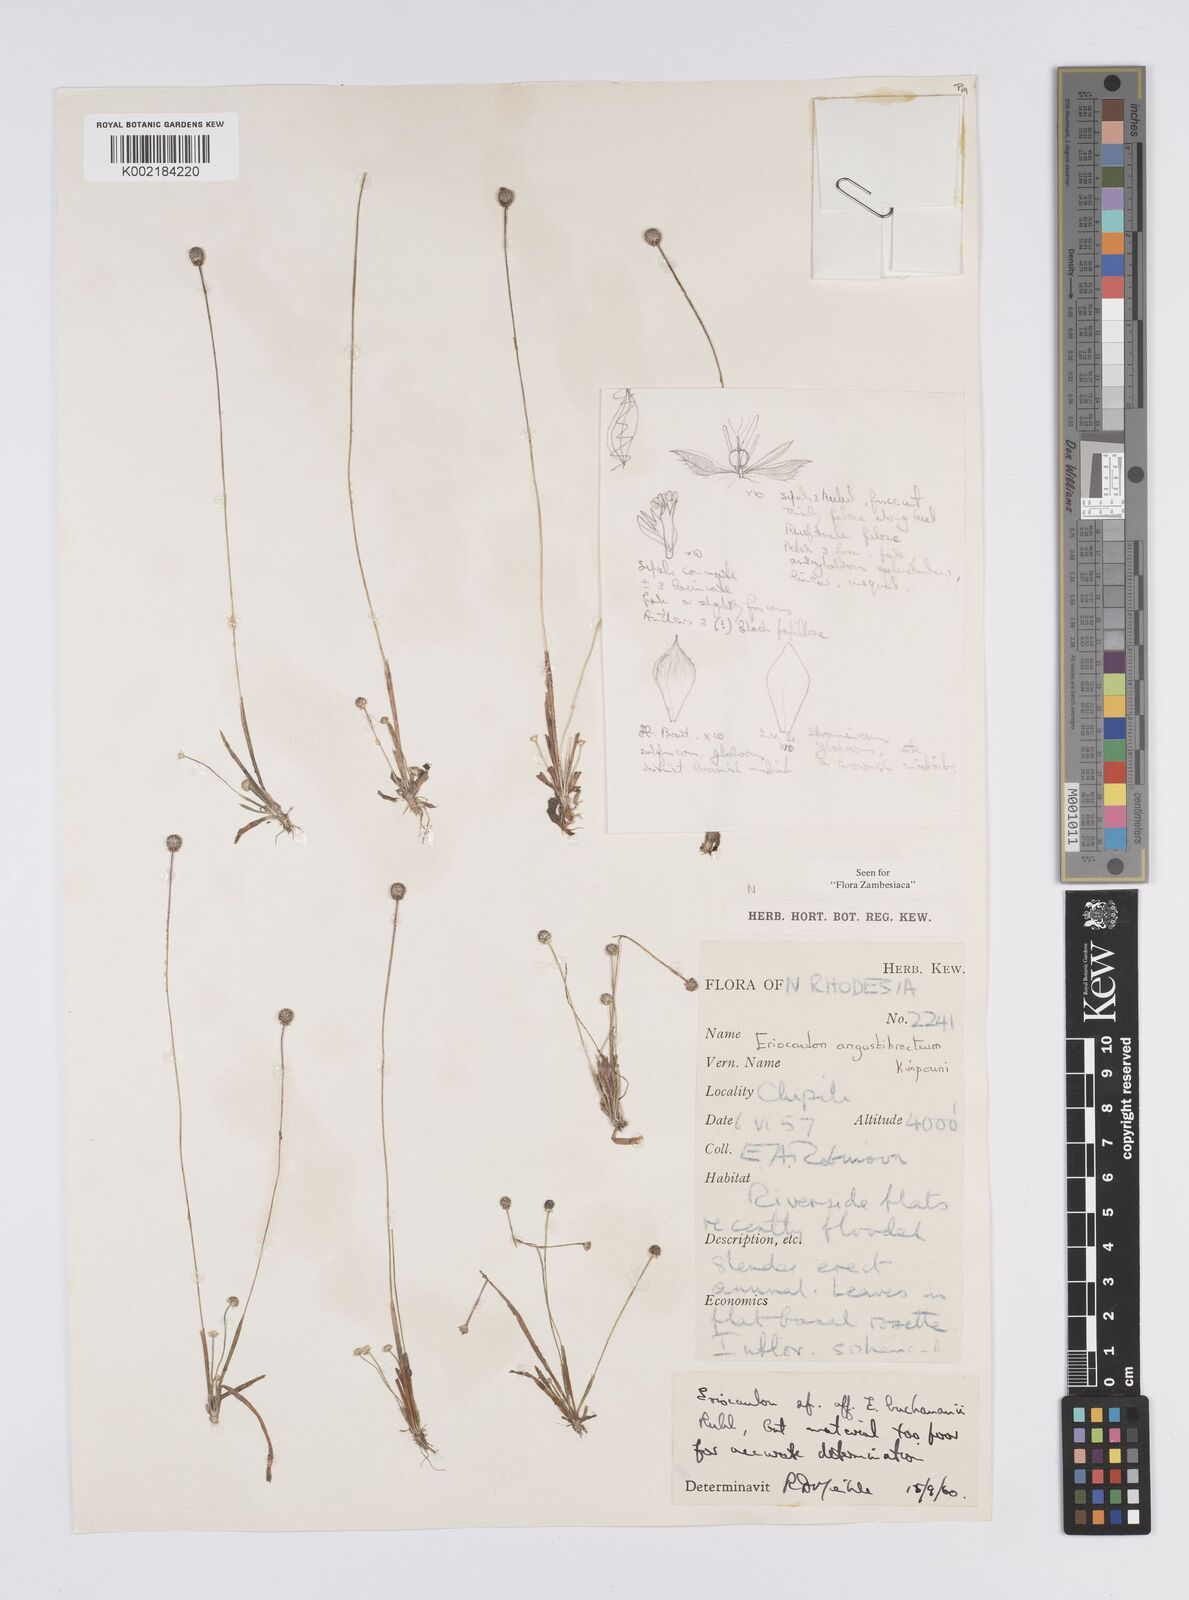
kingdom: Plantae
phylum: Tracheophyta
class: Liliopsida
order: Poales
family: Eriocaulaceae
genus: Eriocaulon
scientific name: Eriocaulon angustibracteum
